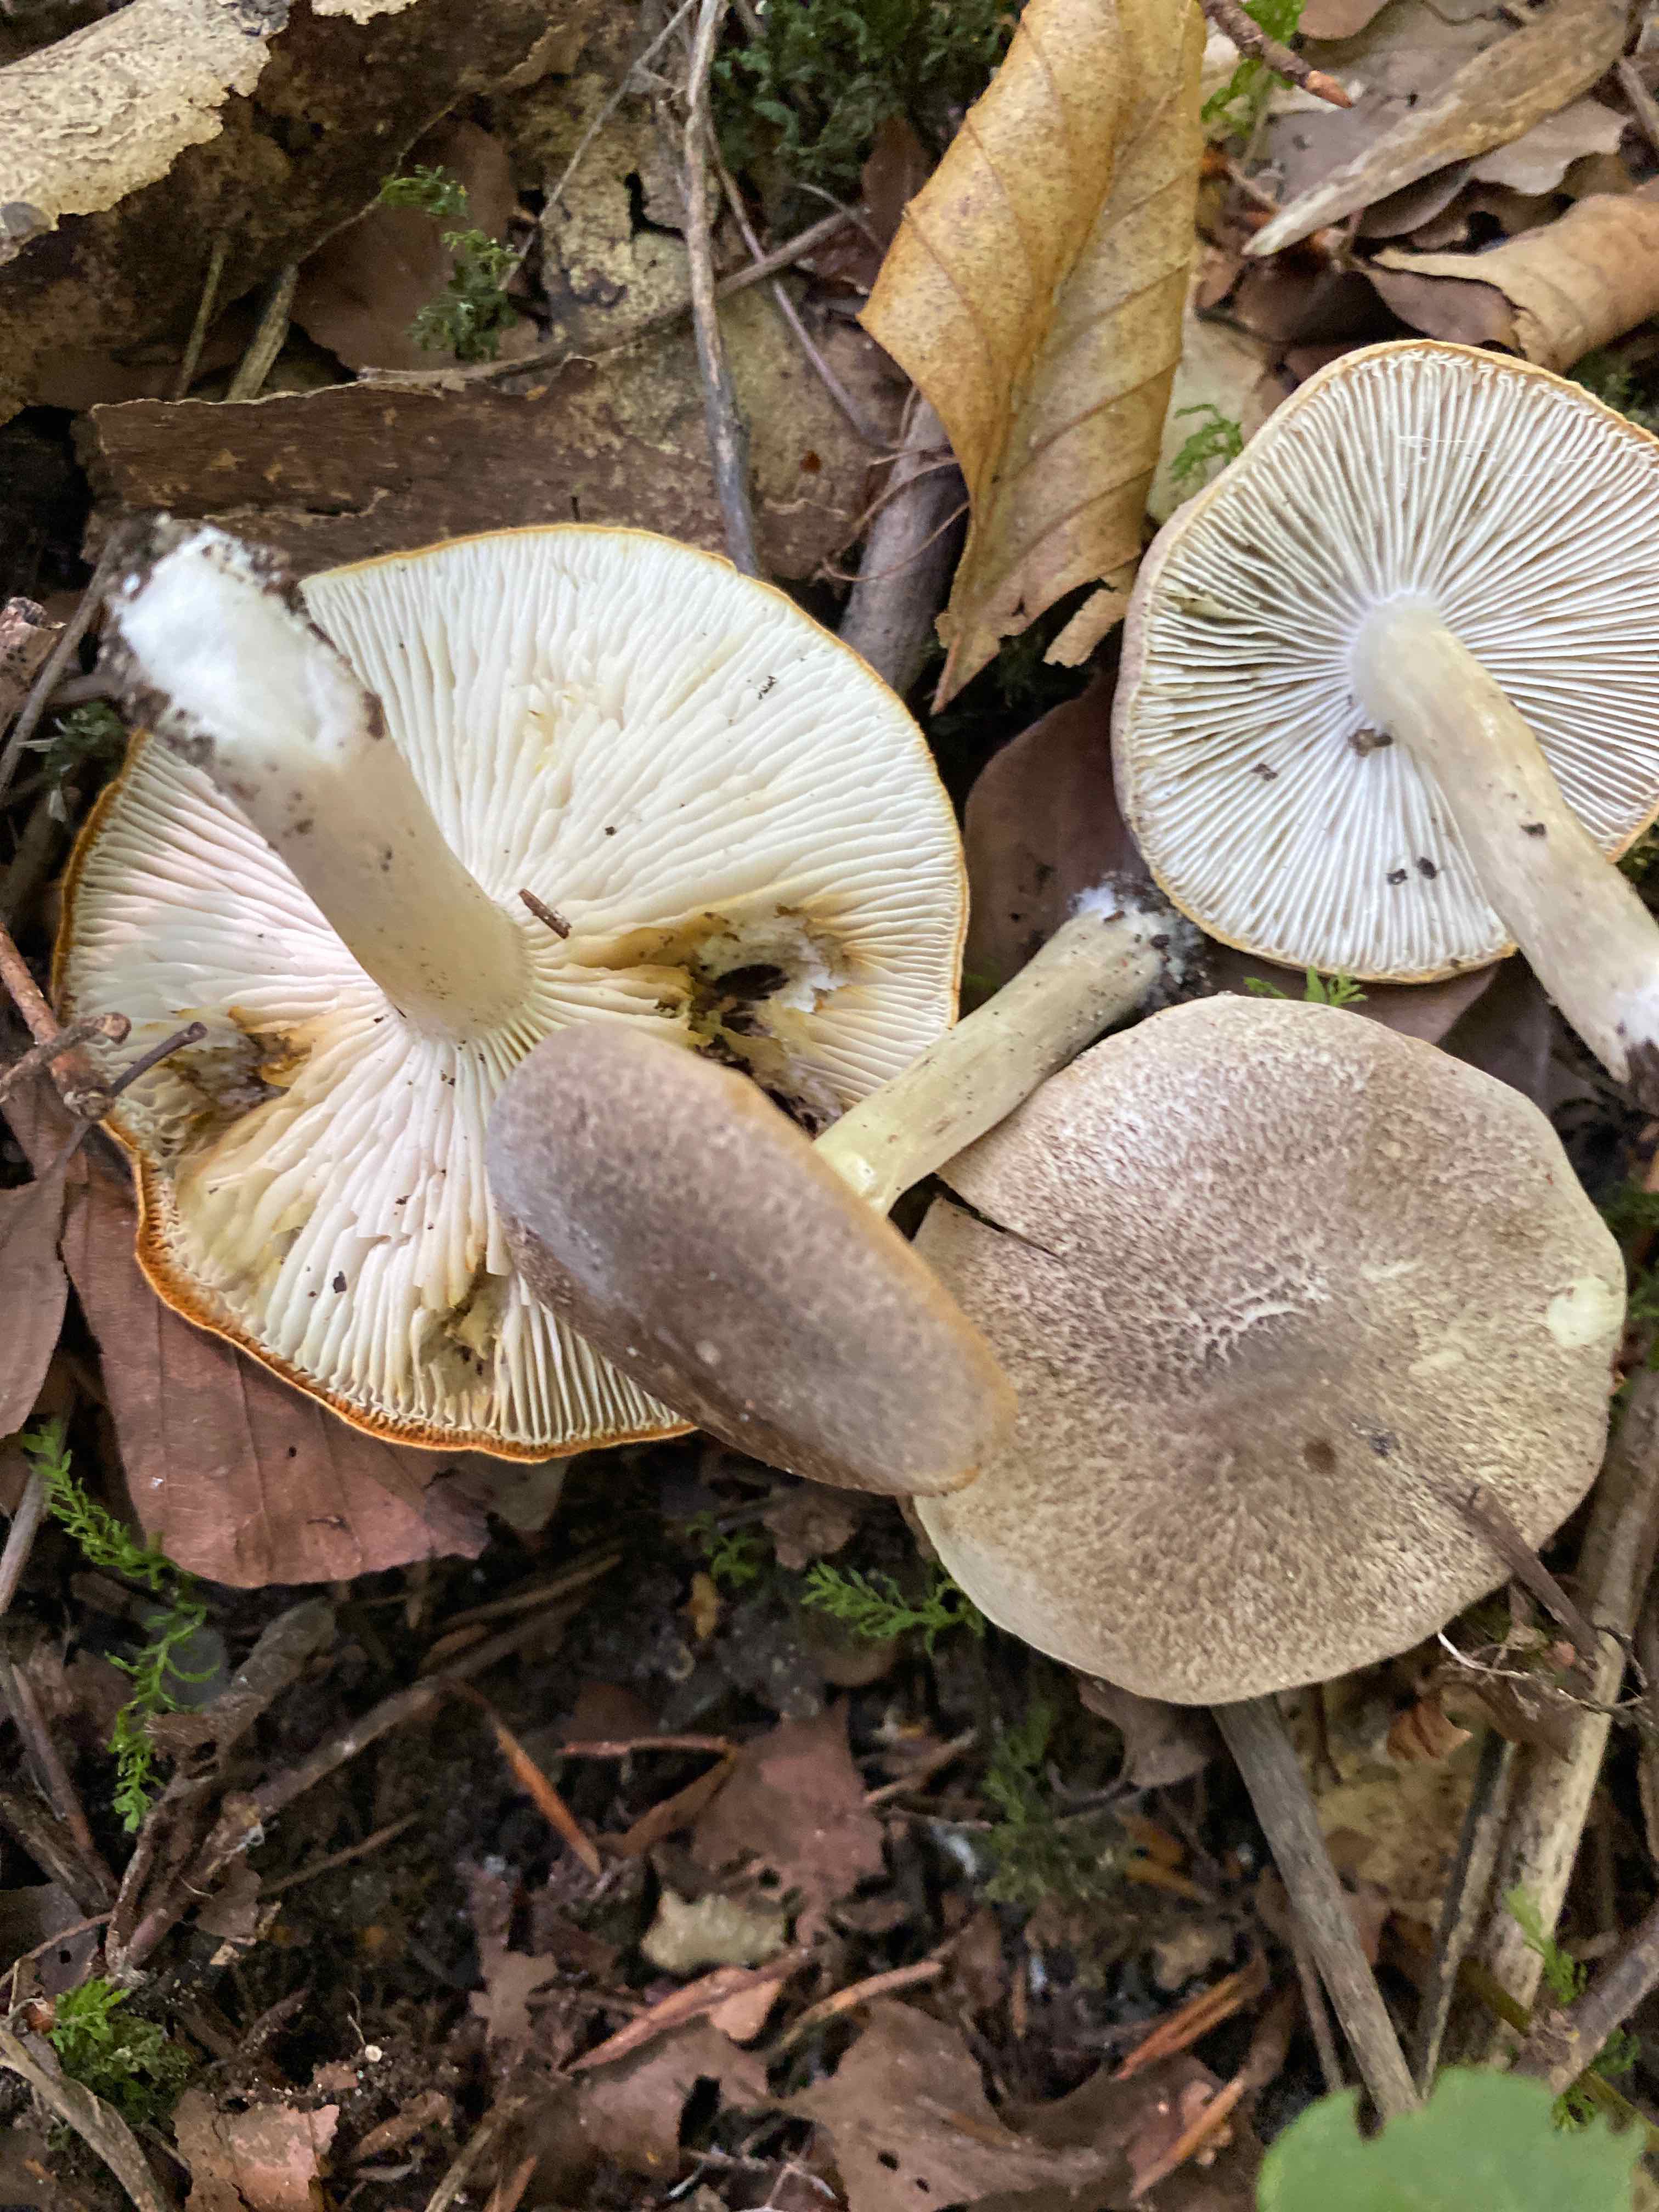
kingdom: Fungi
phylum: Basidiomycota
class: Agaricomycetes
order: Agaricales
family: Tricholomataceae
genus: Tricholoma
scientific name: Tricholoma scalpturatum
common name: gulplettet ridderhat
